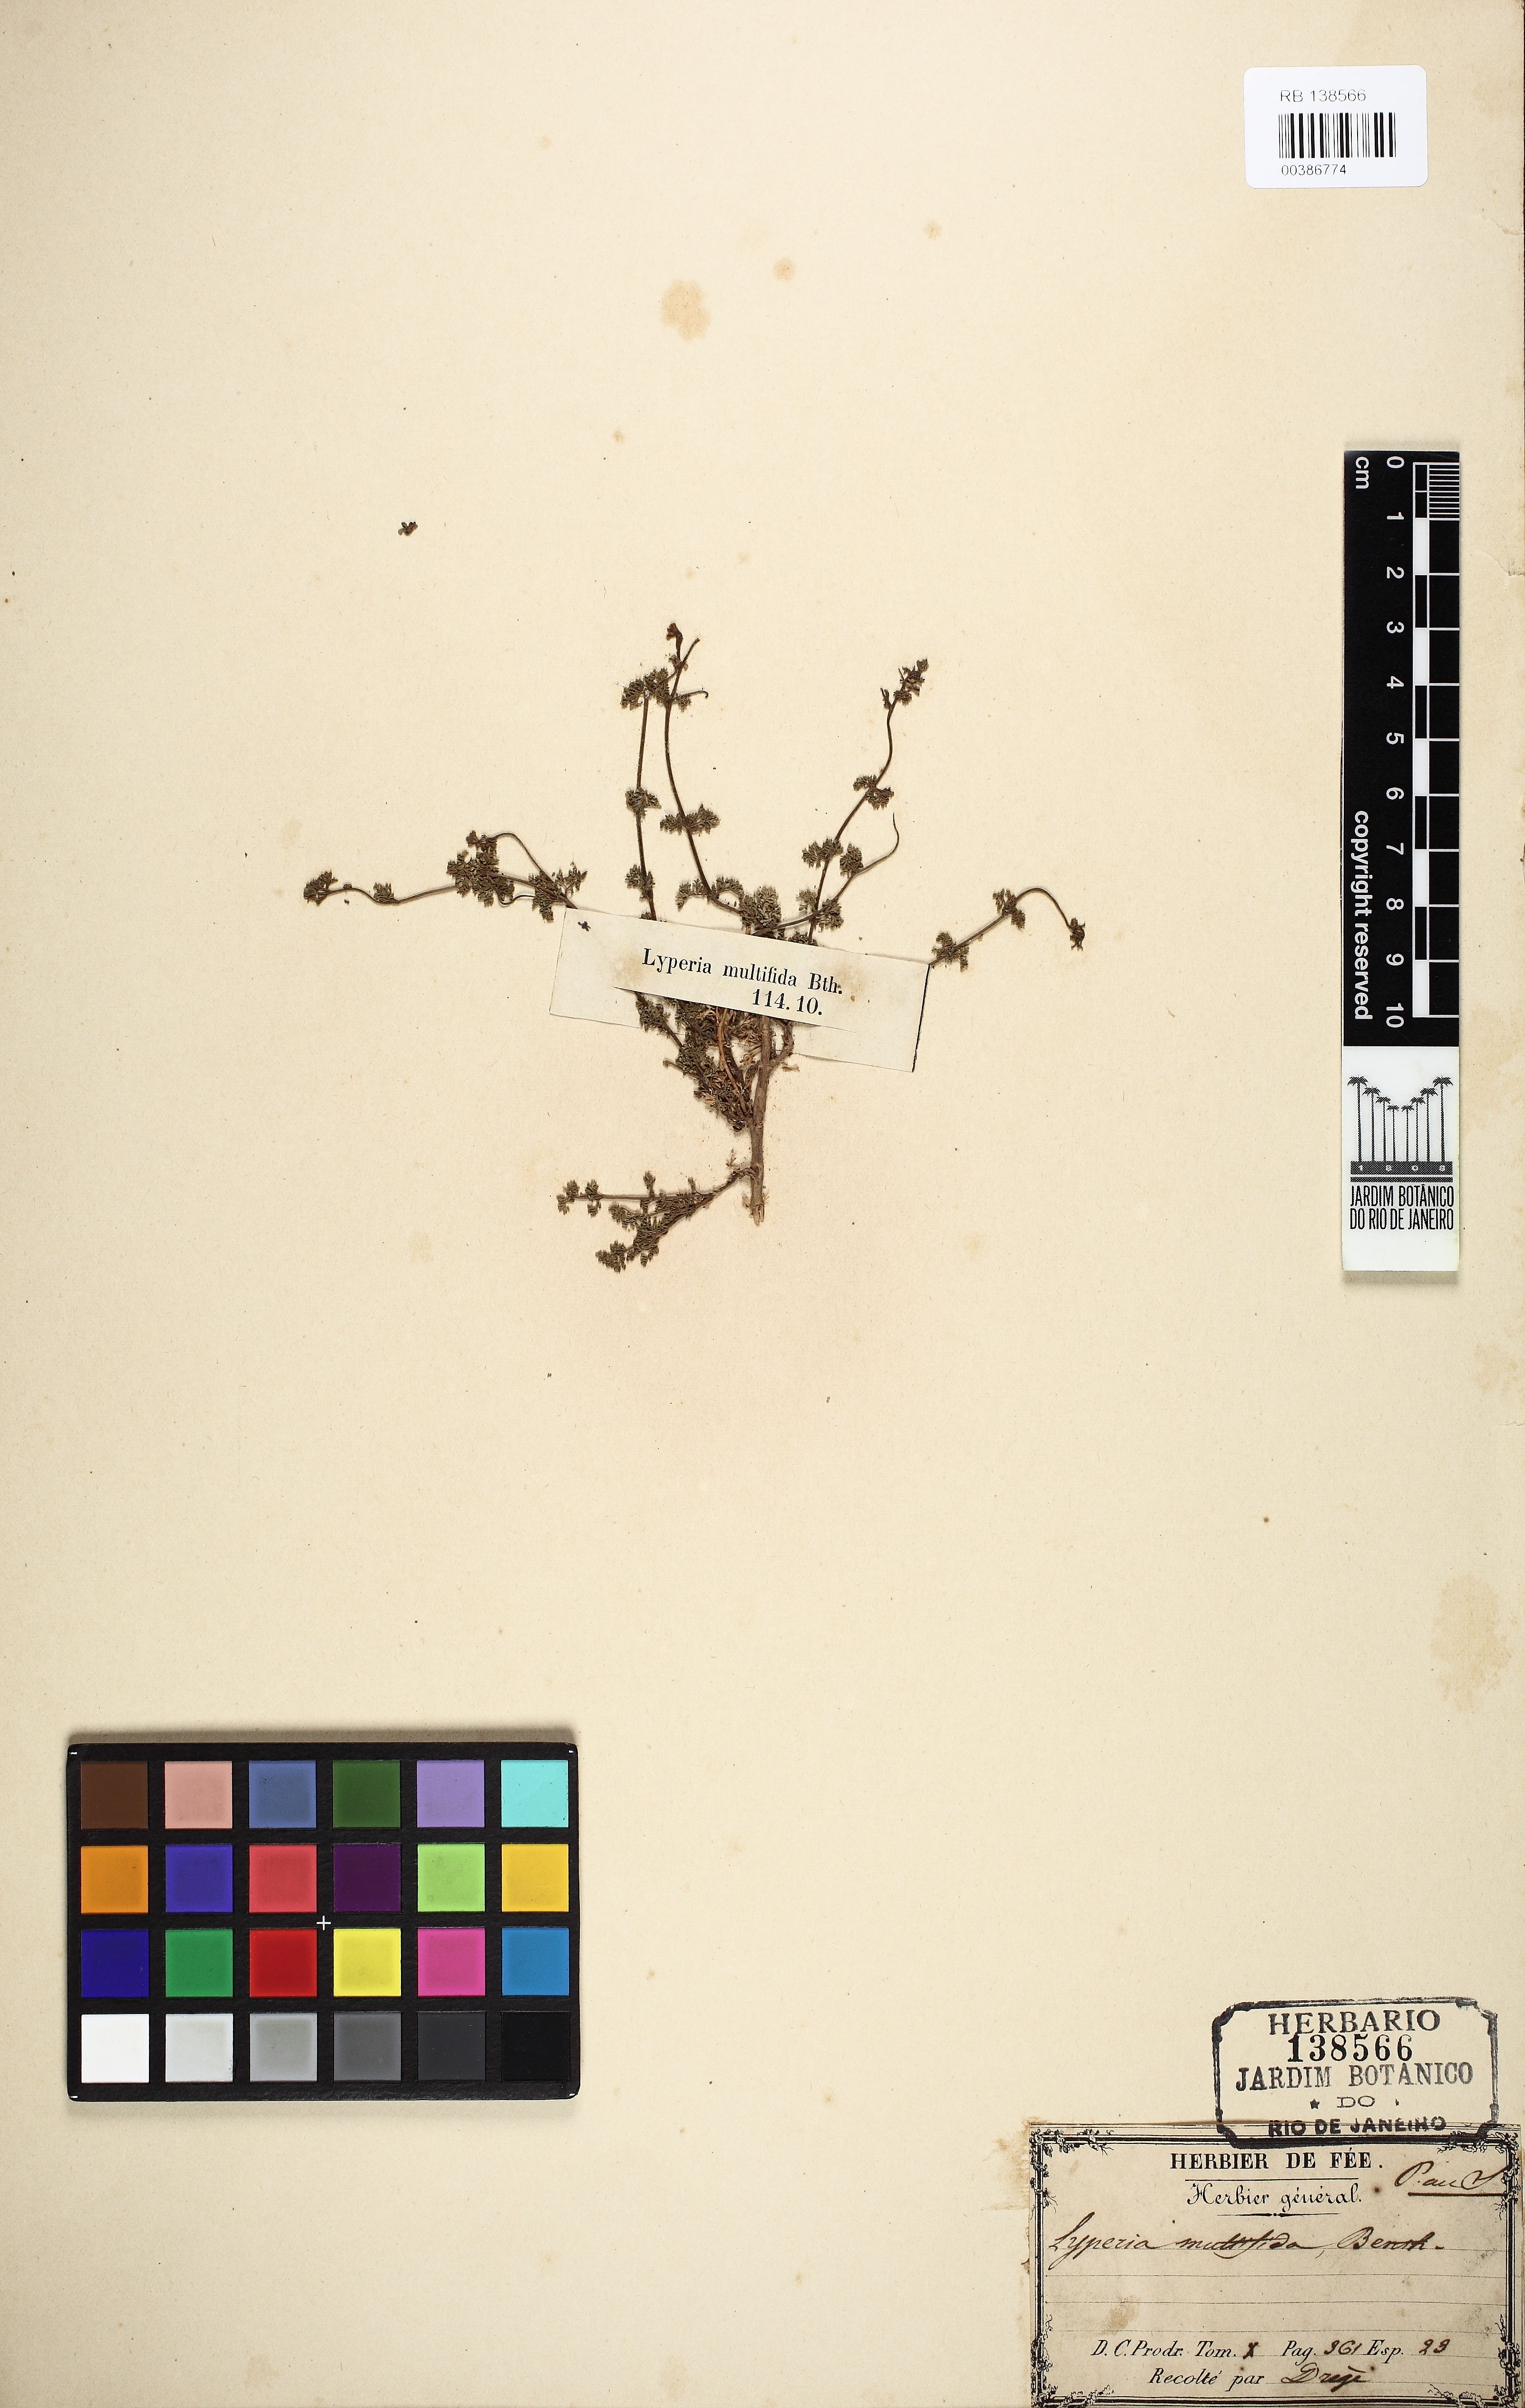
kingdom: Plantae
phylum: Tracheophyta
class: Magnoliopsida
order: Lamiales
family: Scrophulariaceae
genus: Jamesbrittenia
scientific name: Jamesbrittenia aurantiaca
